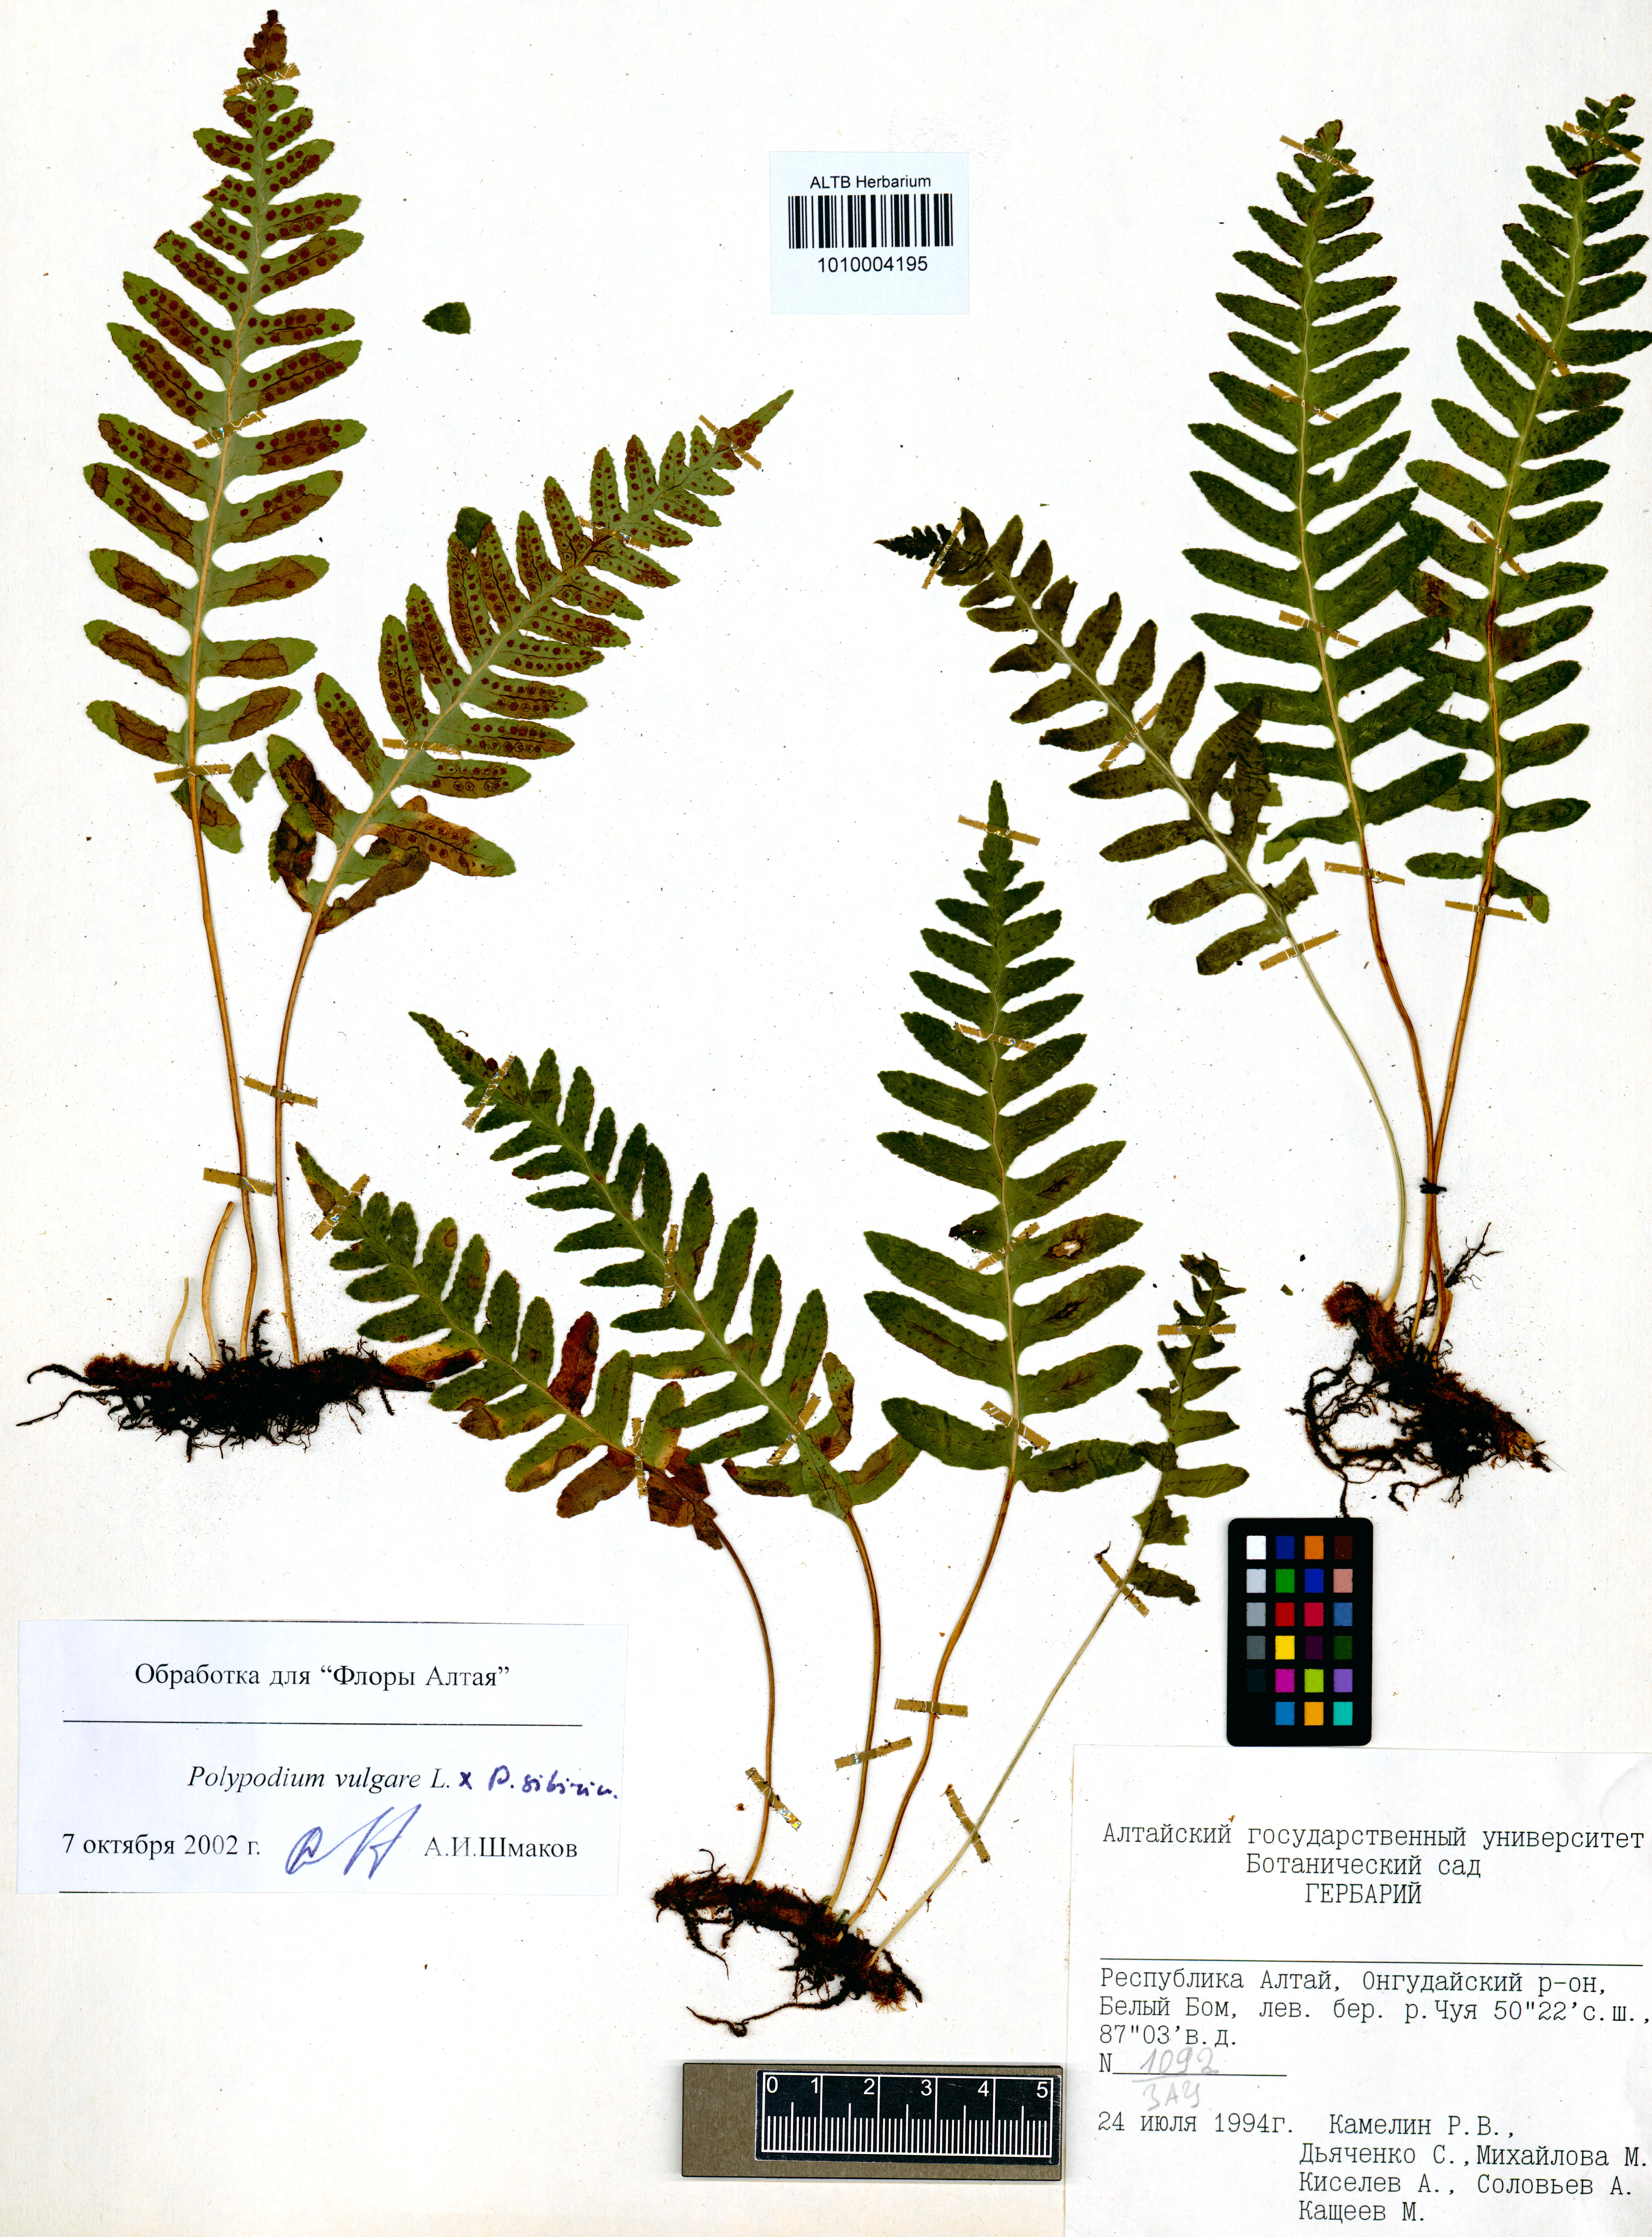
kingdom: Plantae
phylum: Tracheophyta
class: Polypodiopsida
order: Polypodiales
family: Polypodiaceae
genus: Polypodium
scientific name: Polypodium vulgare
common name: Common polypody
